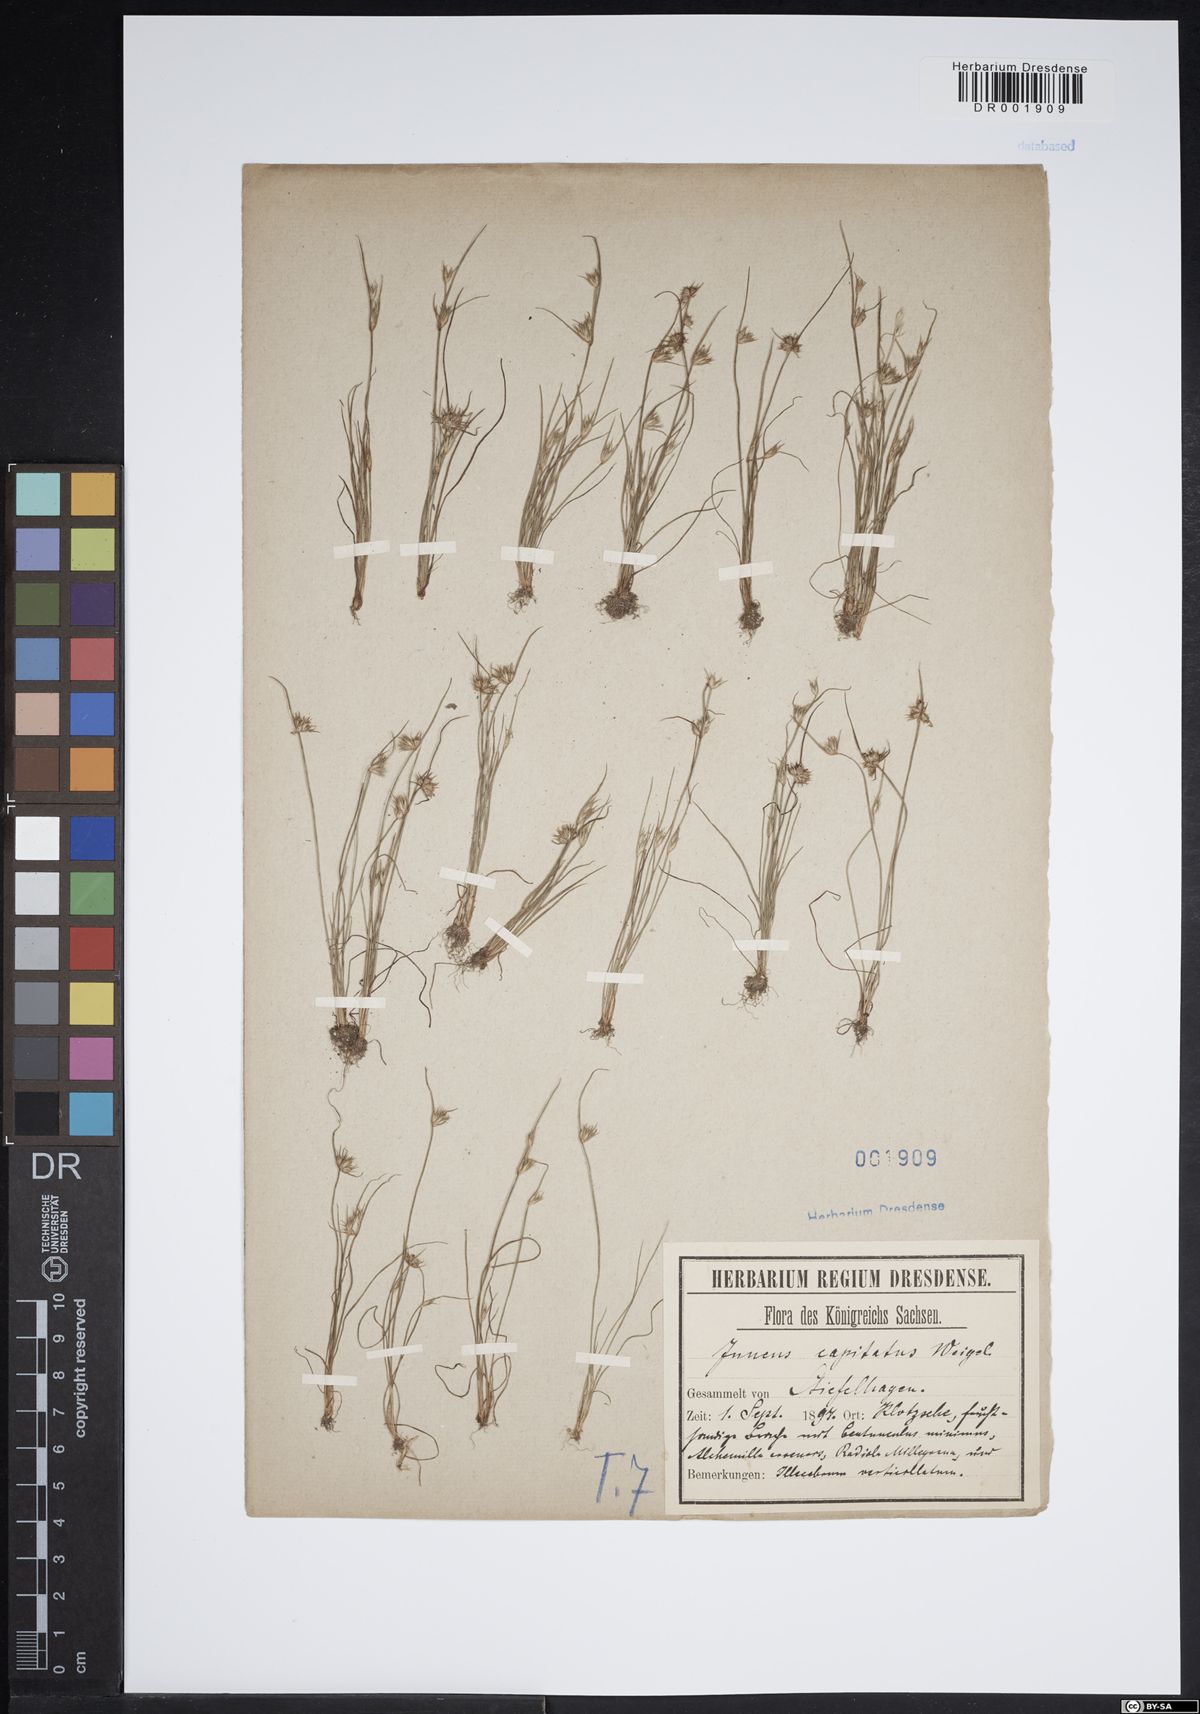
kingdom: Plantae
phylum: Tracheophyta
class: Liliopsida
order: Poales
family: Juncaceae
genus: Juncus
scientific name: Juncus capitatus
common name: Dwarf rush
